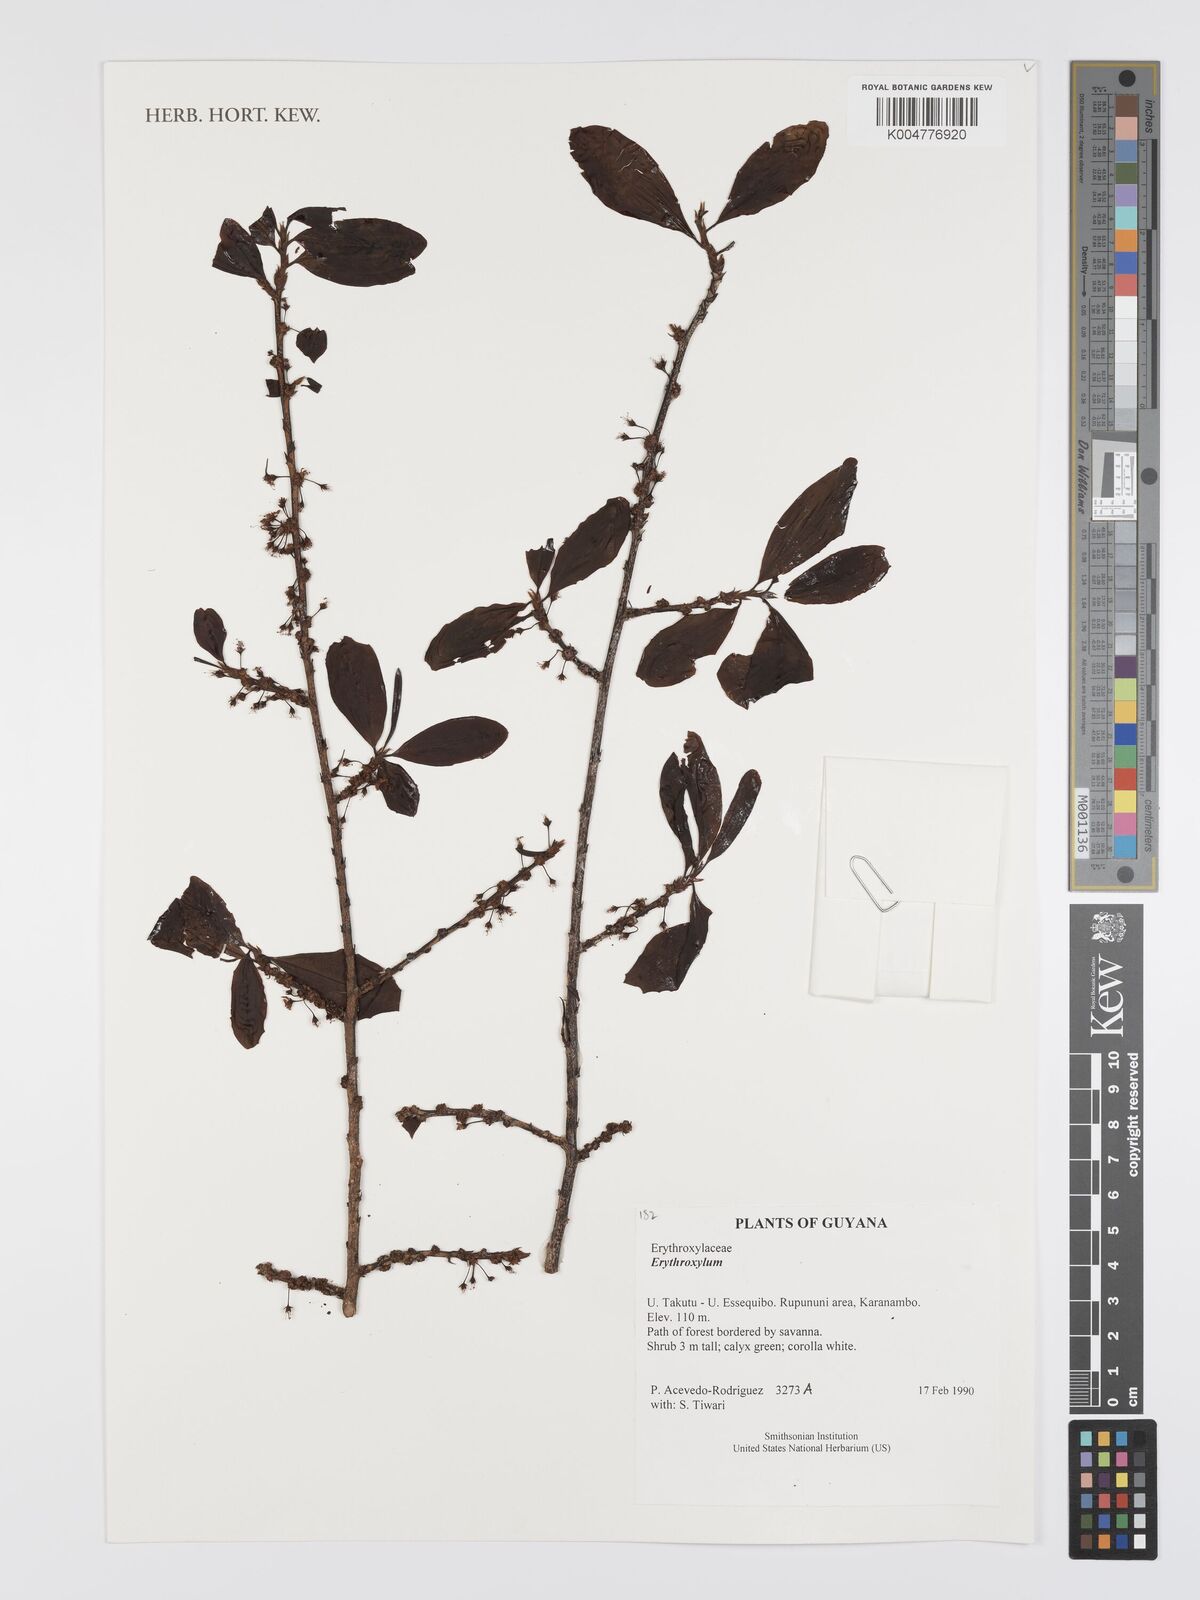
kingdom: Plantae
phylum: Tracheophyta
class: Magnoliopsida
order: Malpighiales
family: Erythroxylaceae
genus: Erythroxylum
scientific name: Erythroxylum
